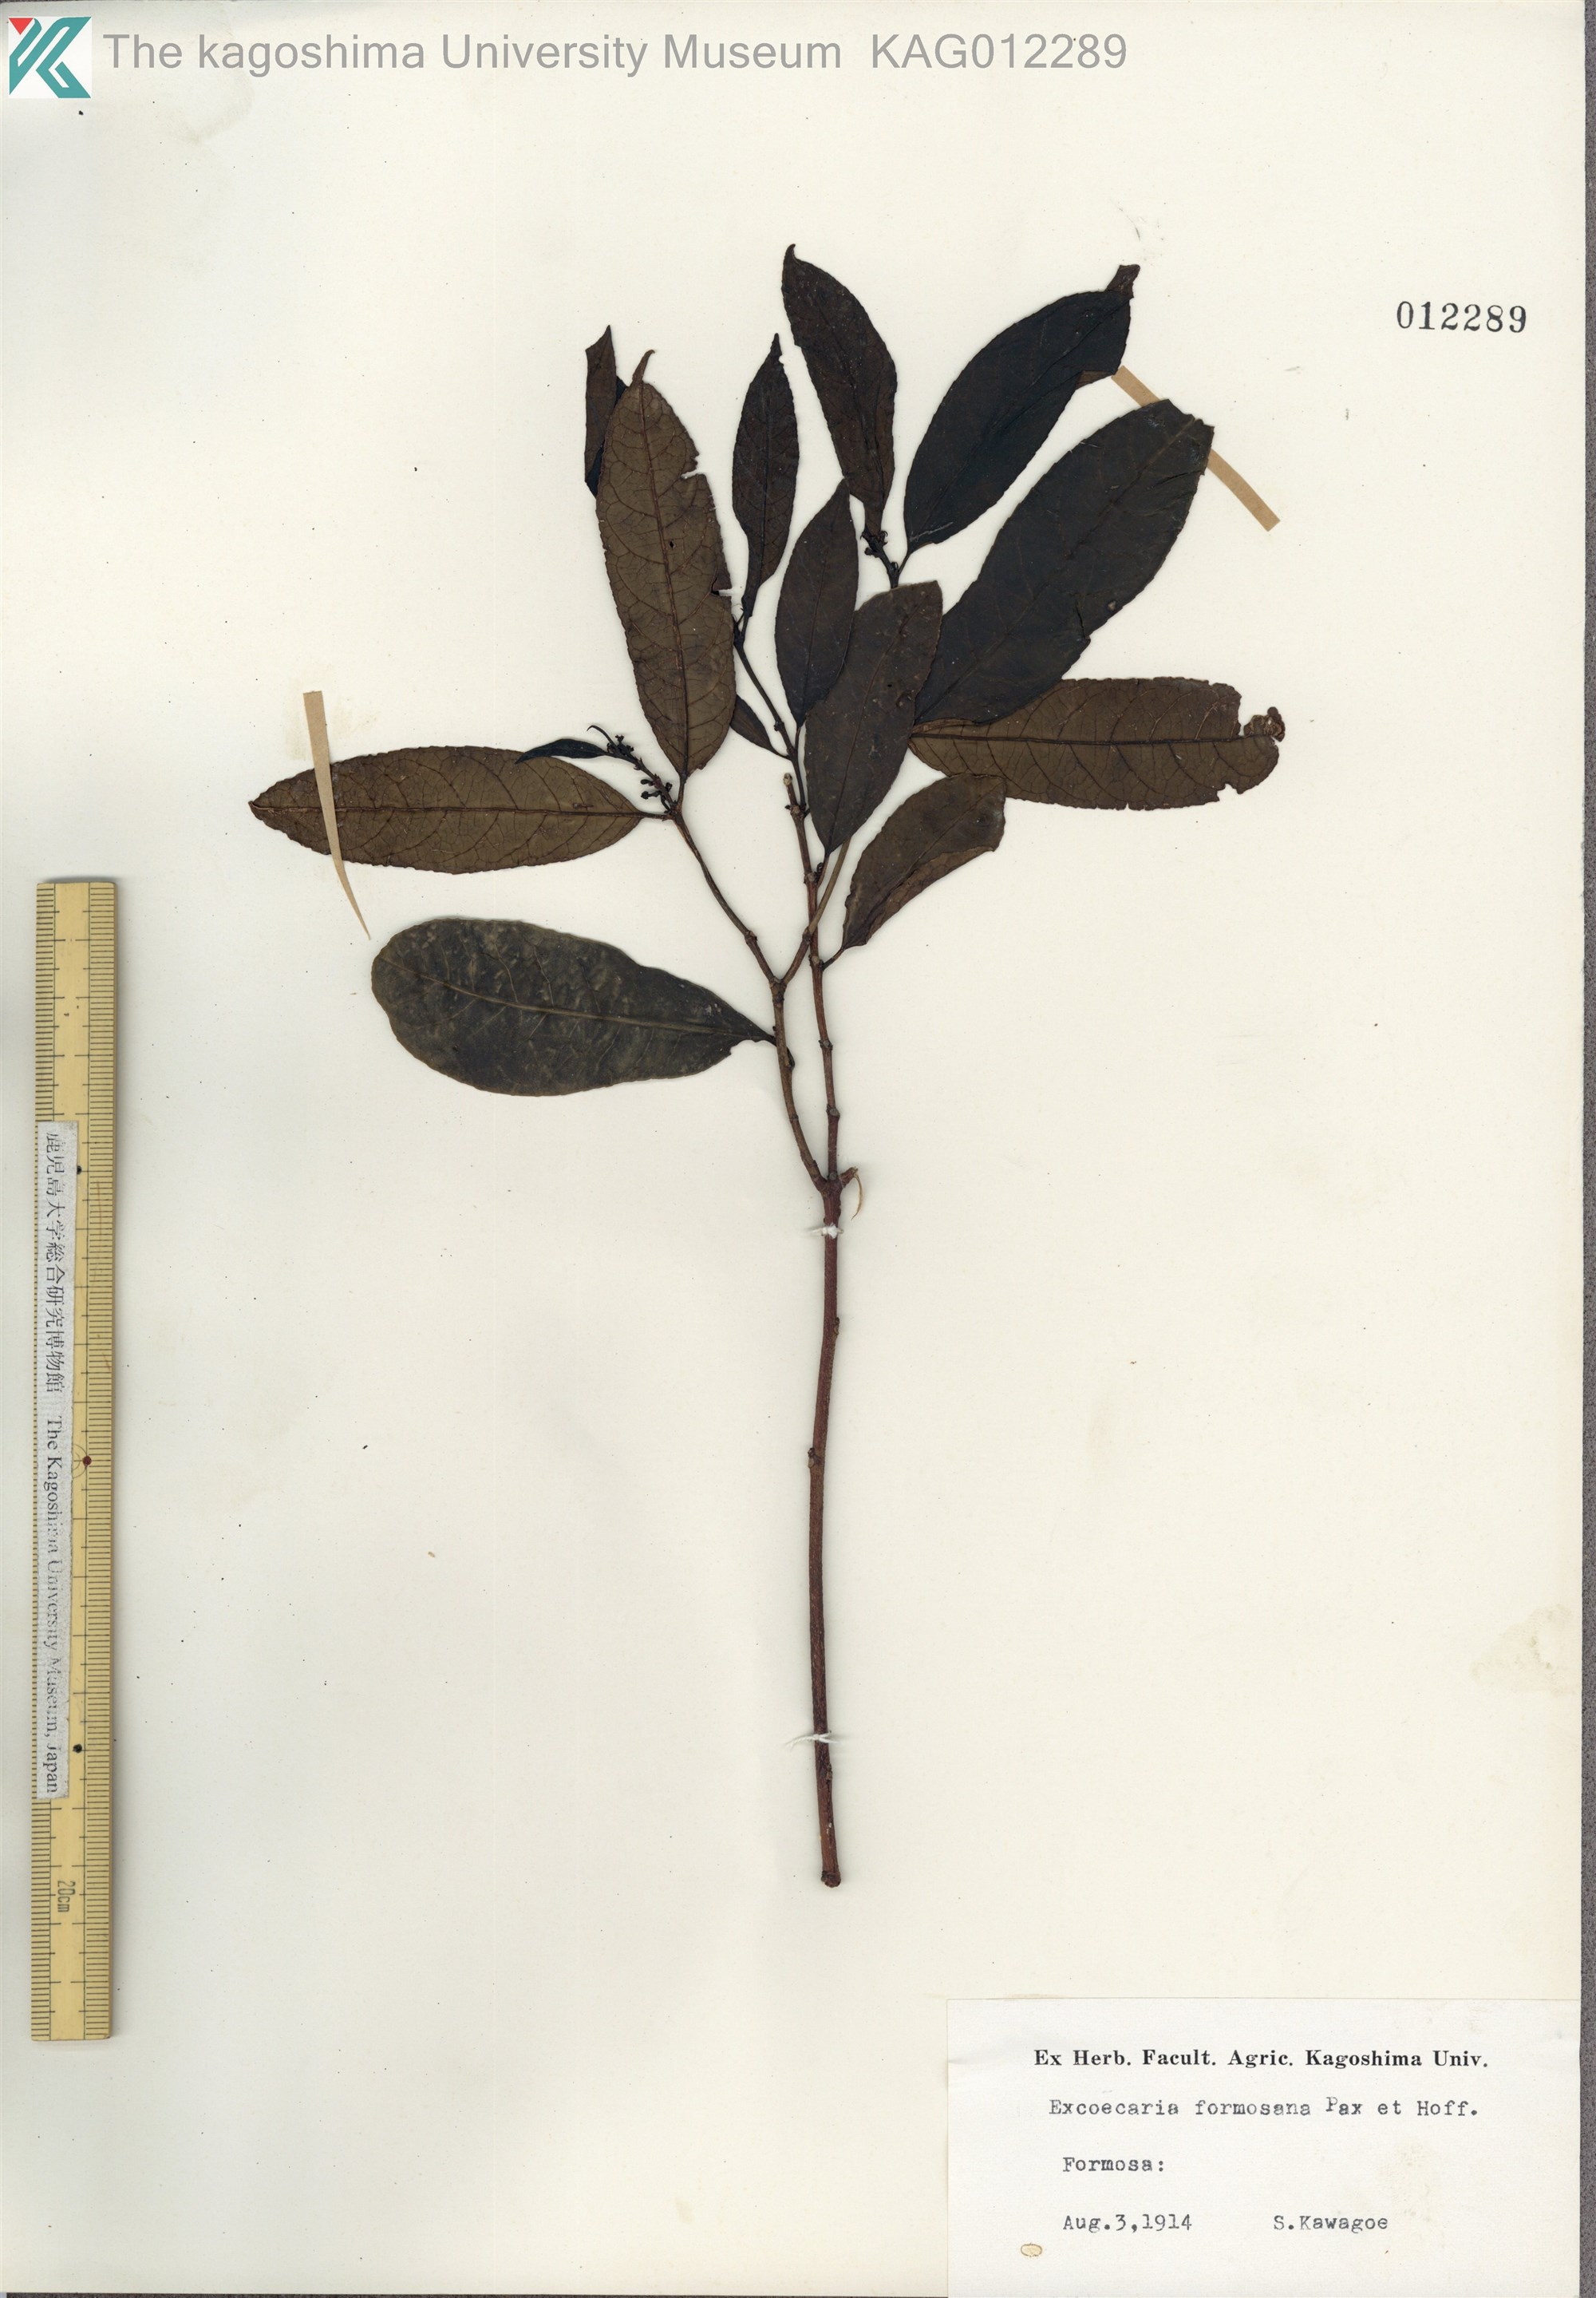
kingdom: Plantae
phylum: Tracheophyta
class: Magnoliopsida
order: Malpighiales
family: Euphorbiaceae
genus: Excoecaria
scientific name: Excoecaria formosana
